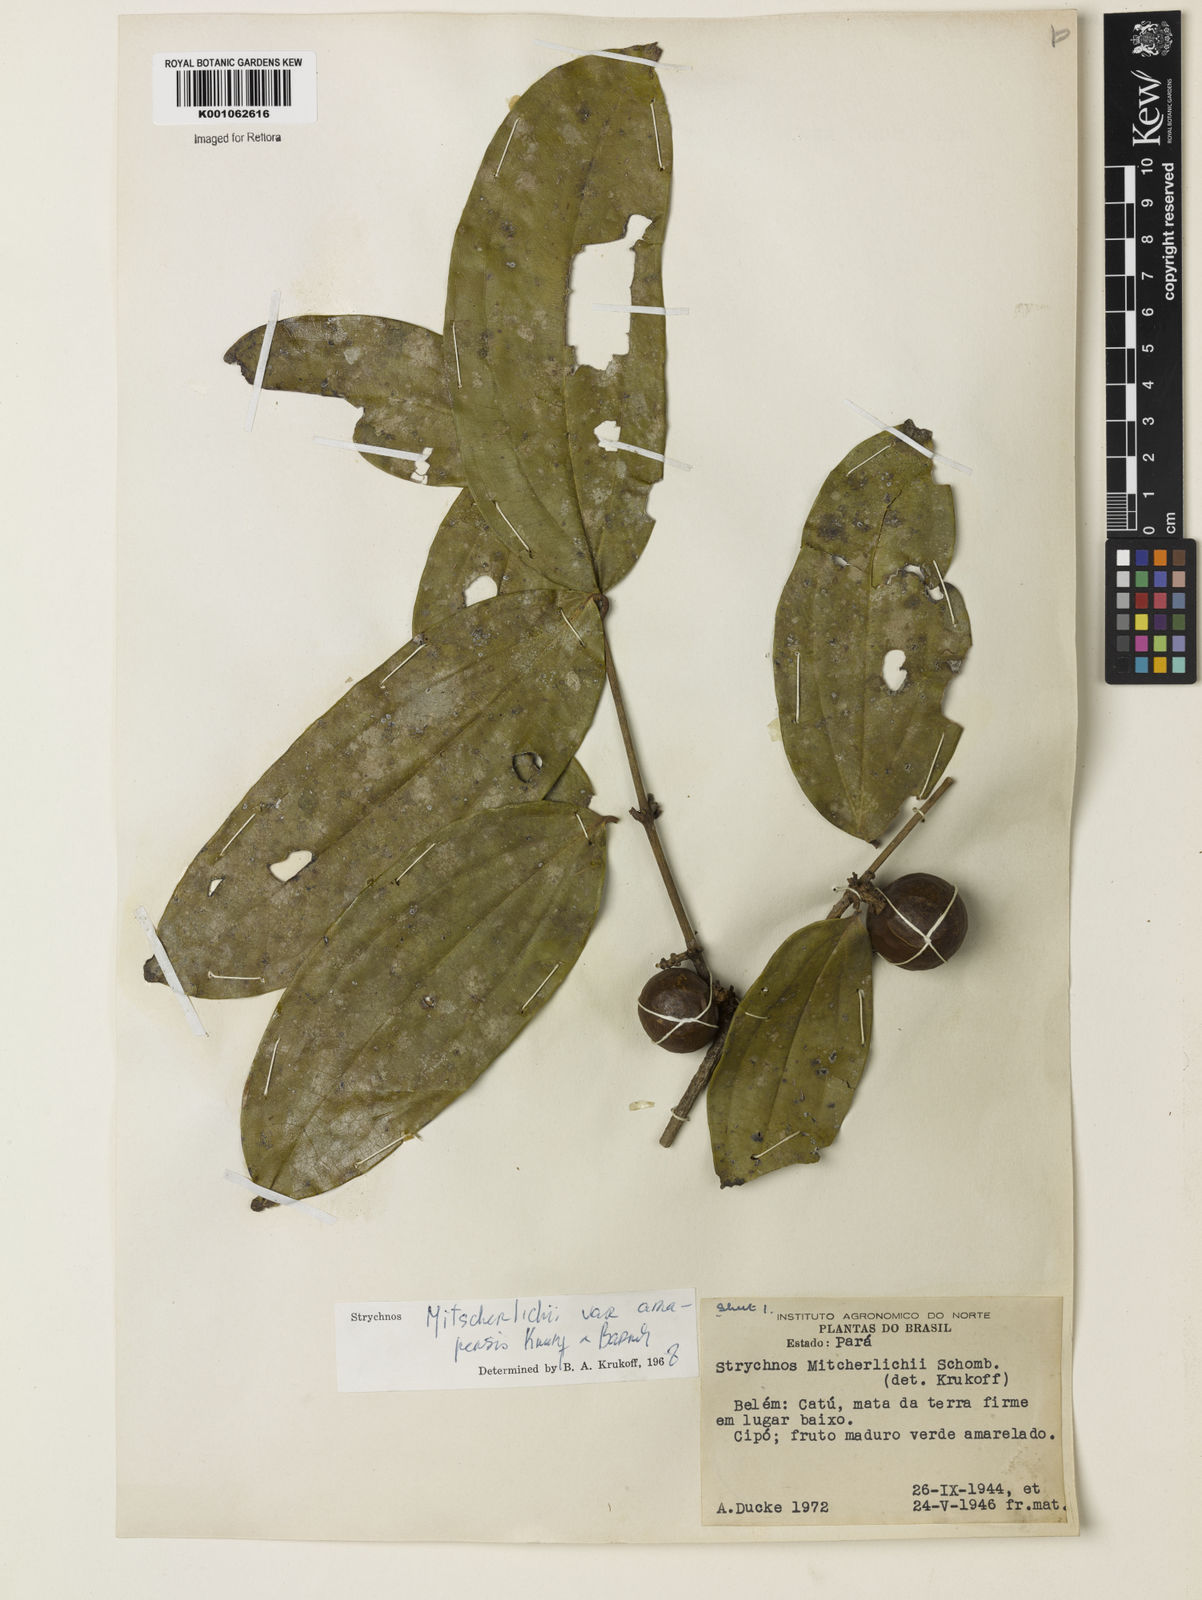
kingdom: Plantae
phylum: Tracheophyta
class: Magnoliopsida
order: Gentianales
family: Loganiaceae
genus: Strychnos
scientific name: Strychnos mitscherlichii
